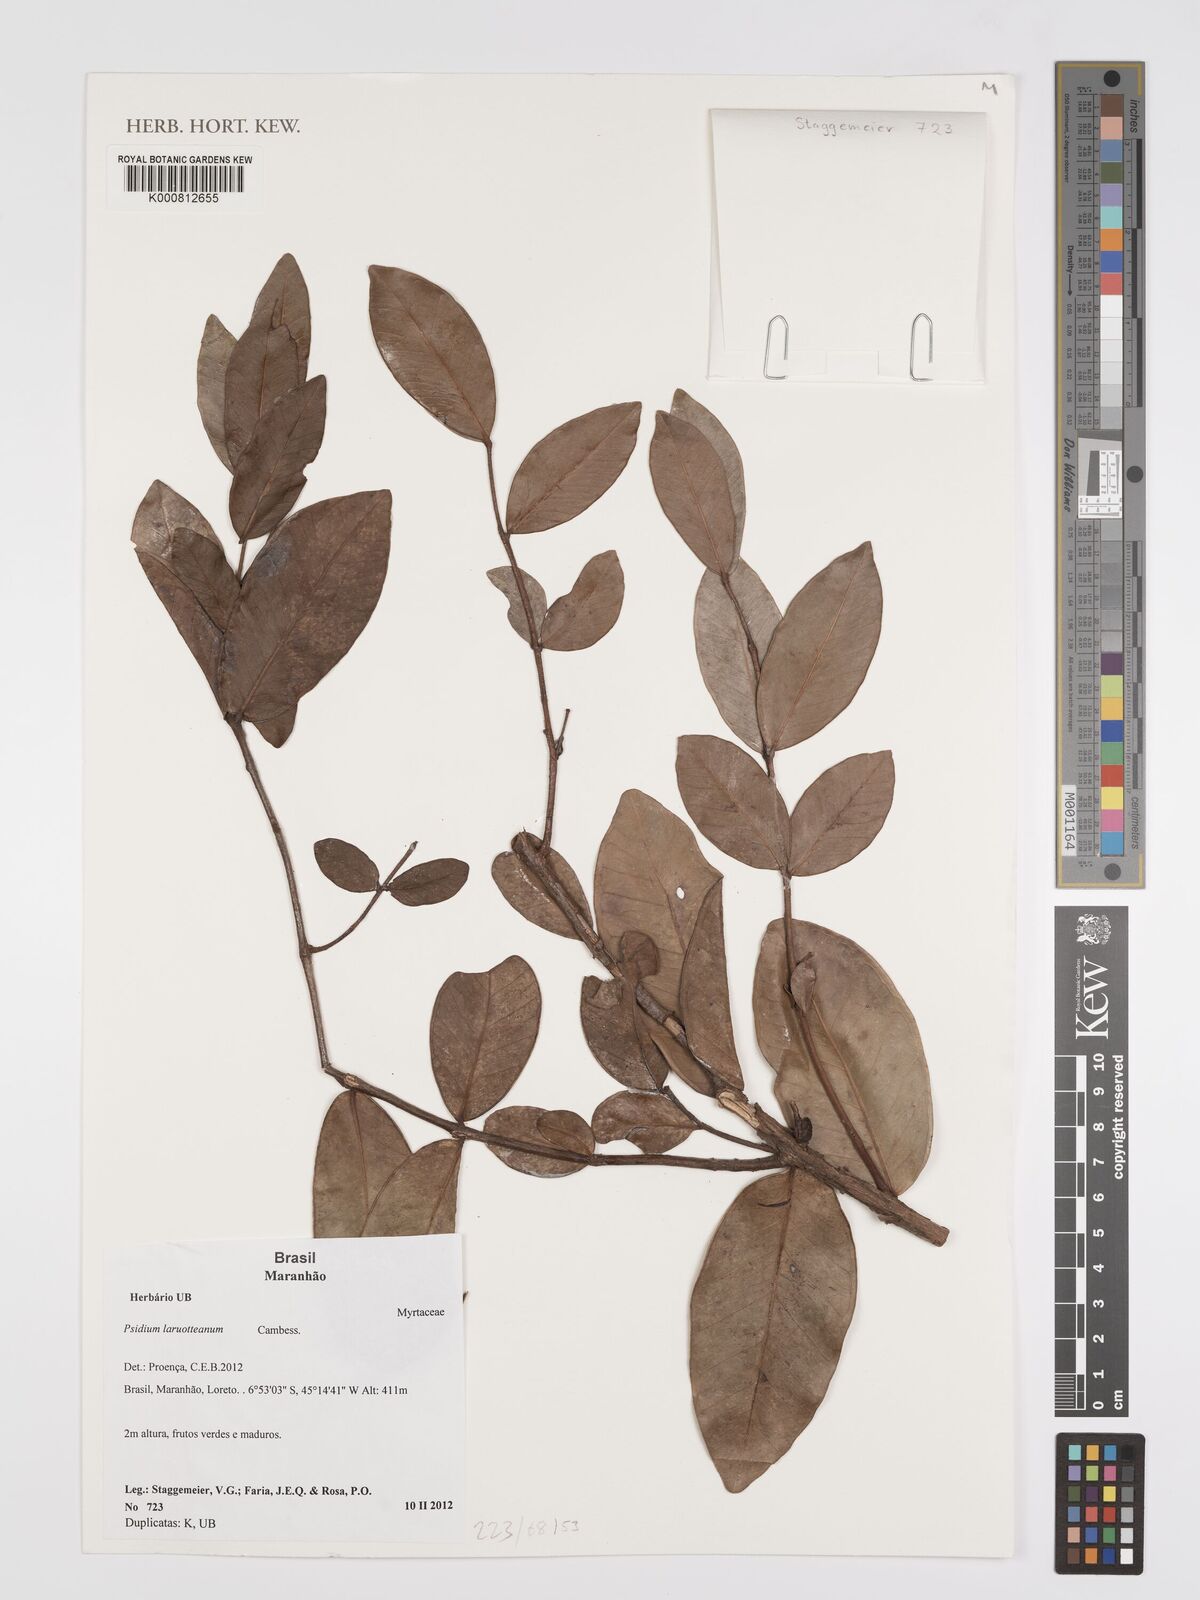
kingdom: Plantae
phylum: Tracheophyta
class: Magnoliopsida
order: Myrtales
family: Myrtaceae
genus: Psidium
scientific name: Psidium larueotteanum
